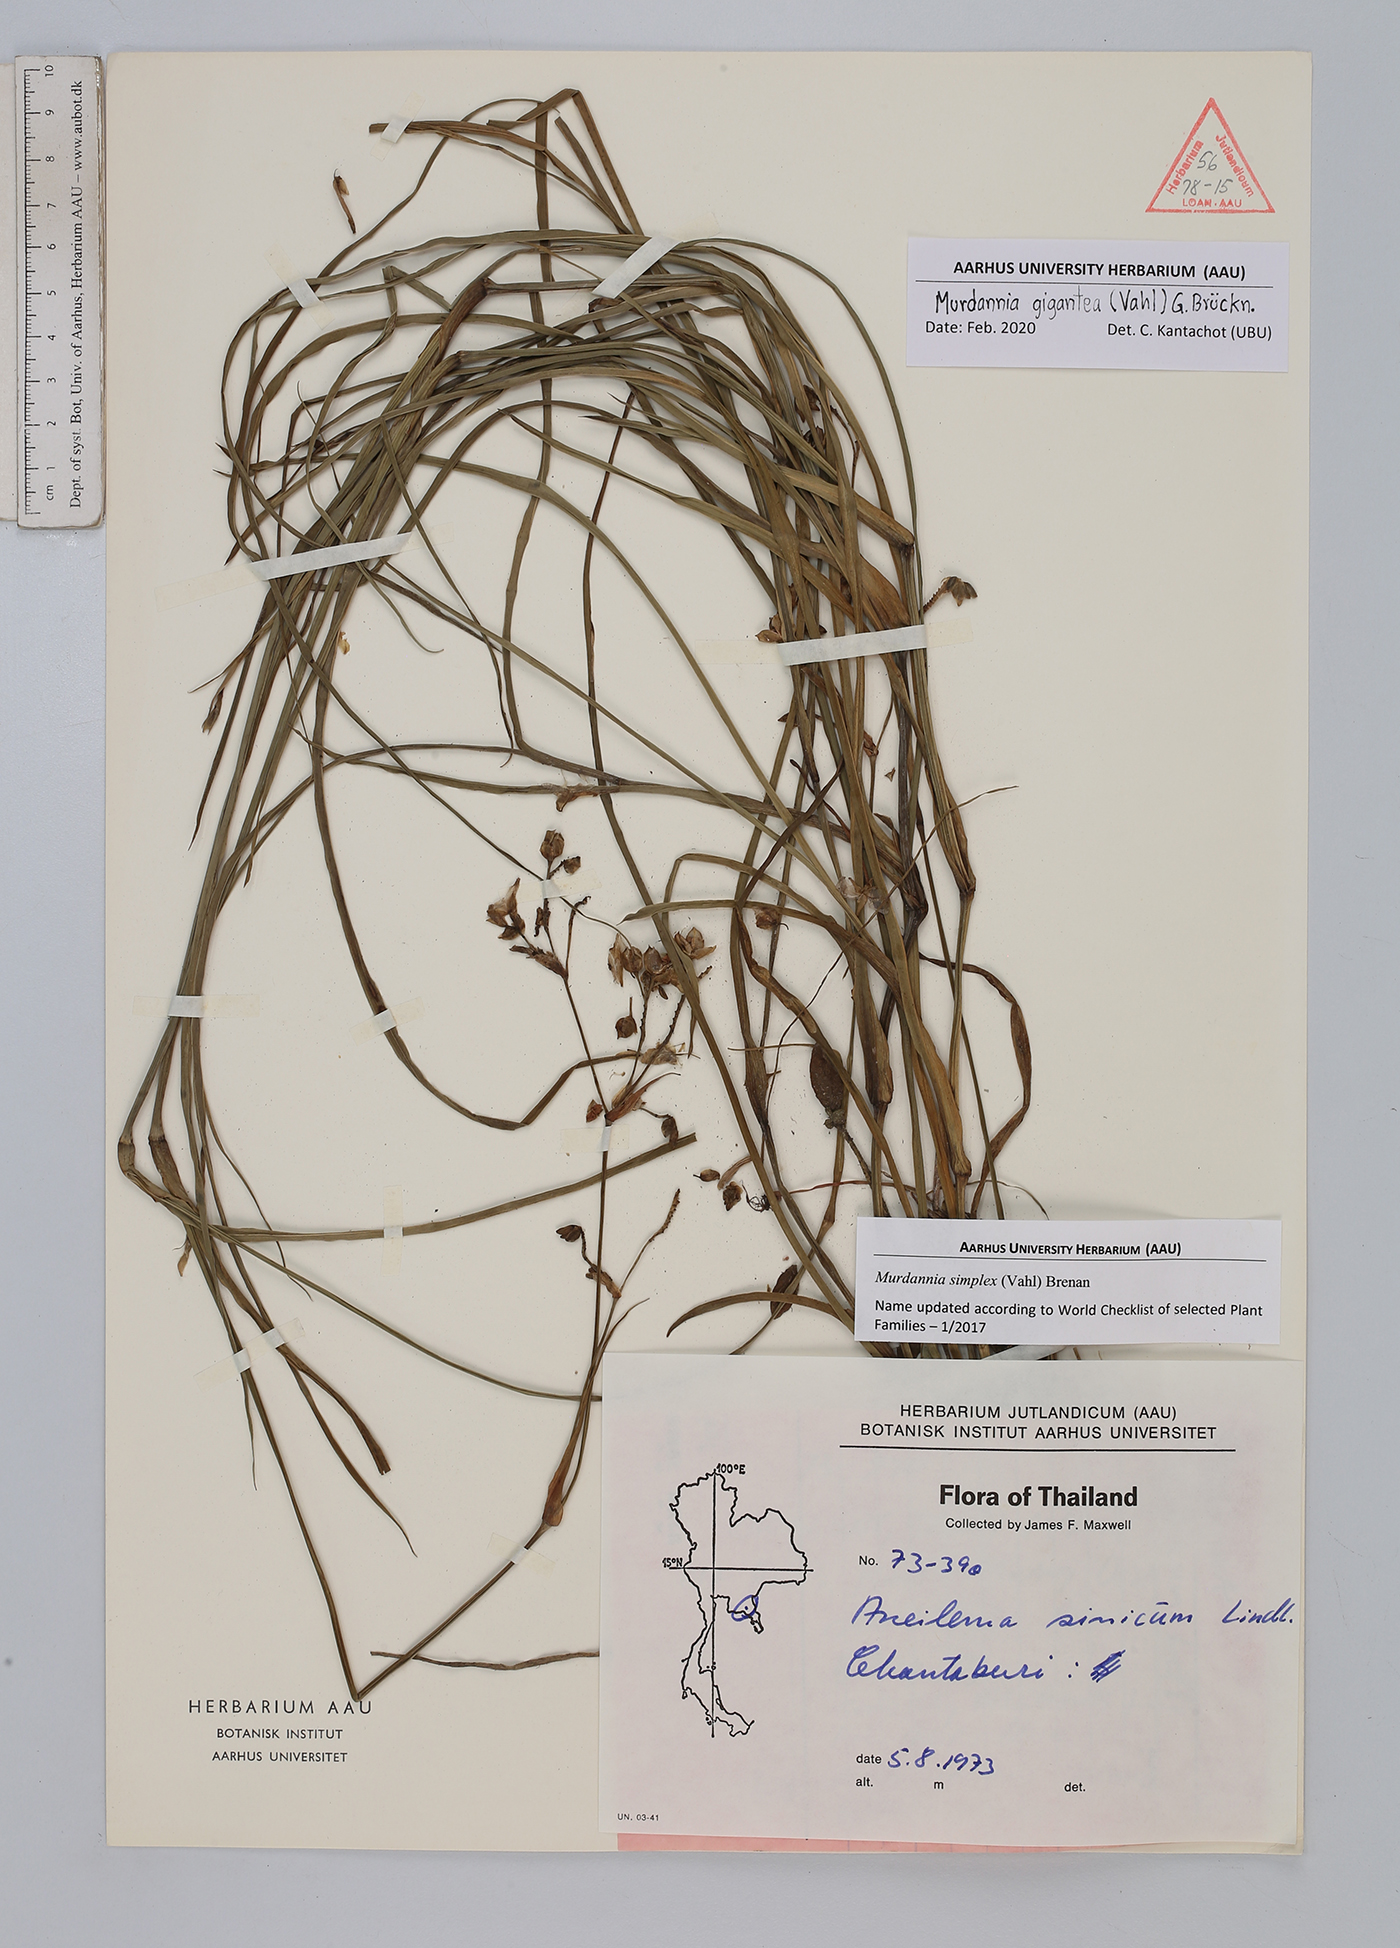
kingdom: Plantae
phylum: Tracheophyta
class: Liliopsida
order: Commelinales
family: Commelinaceae
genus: Murdannia
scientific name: Murdannia gigantea
